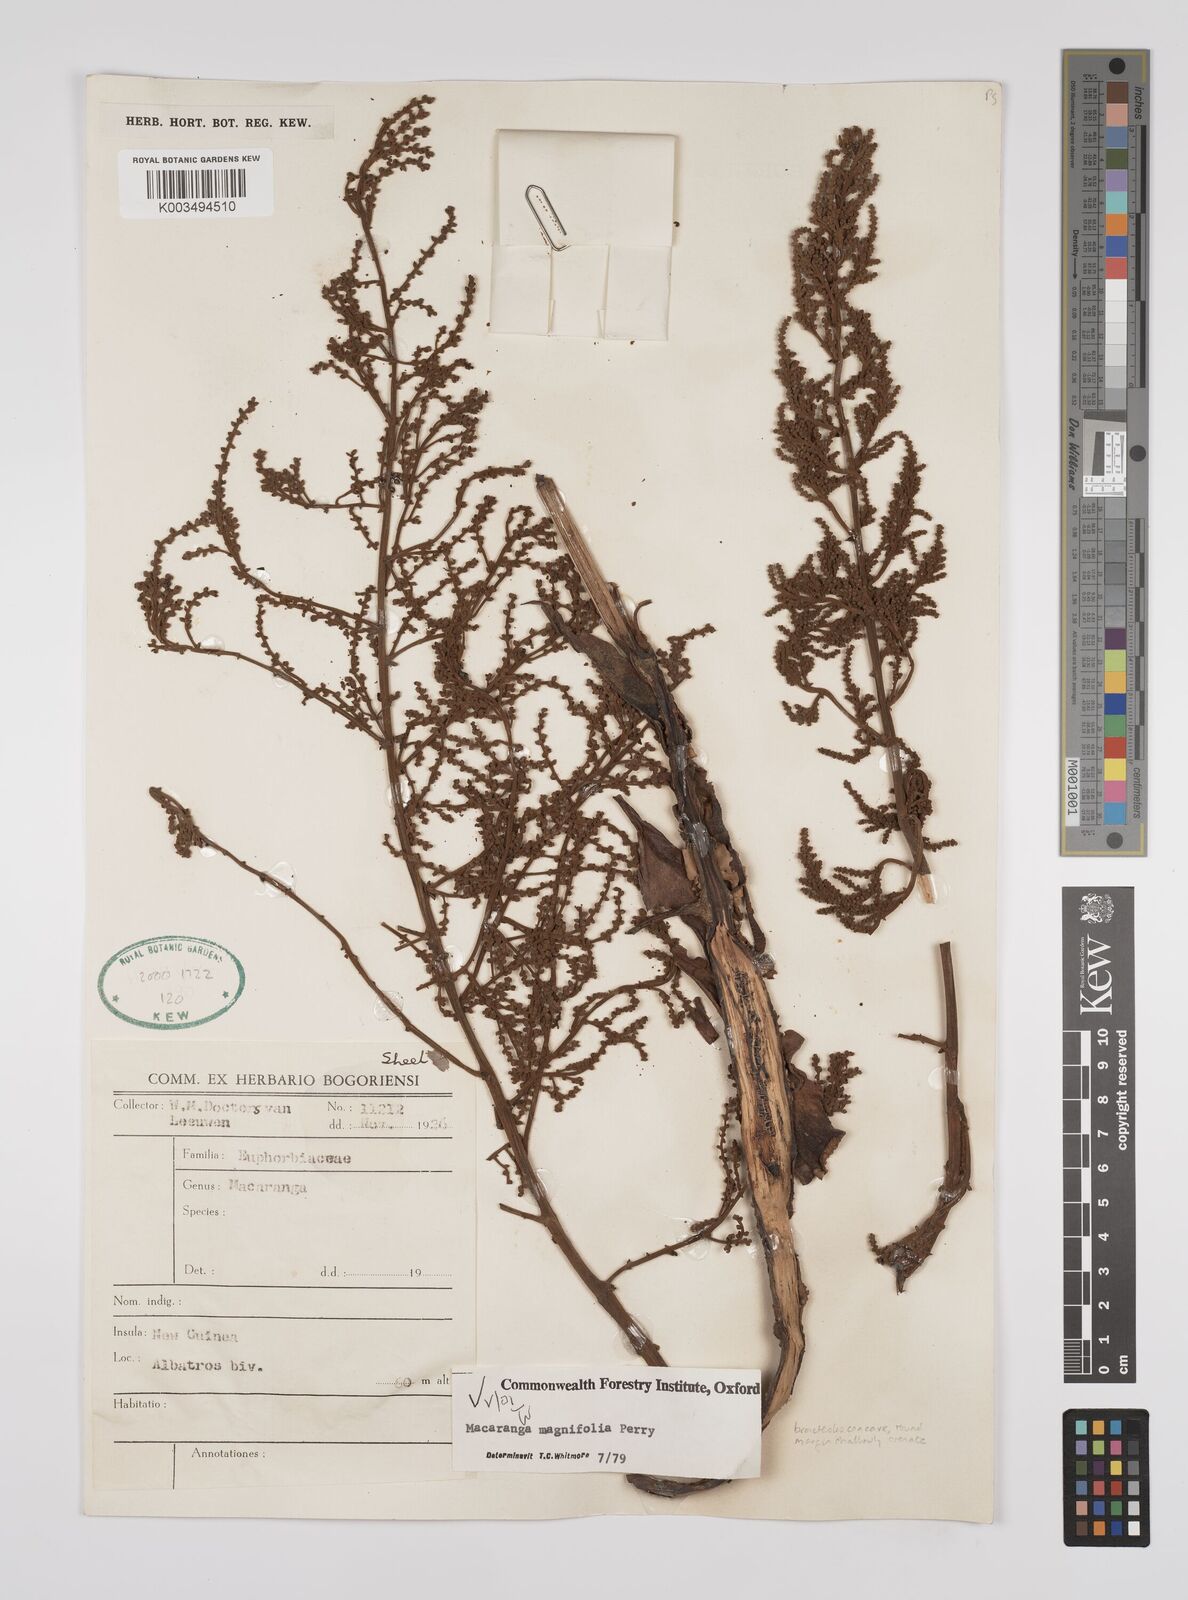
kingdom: Plantae
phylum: Tracheophyta
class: Magnoliopsida
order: Malpighiales
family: Euphorbiaceae
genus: Macaranga
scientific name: Macaranga magnifolia
